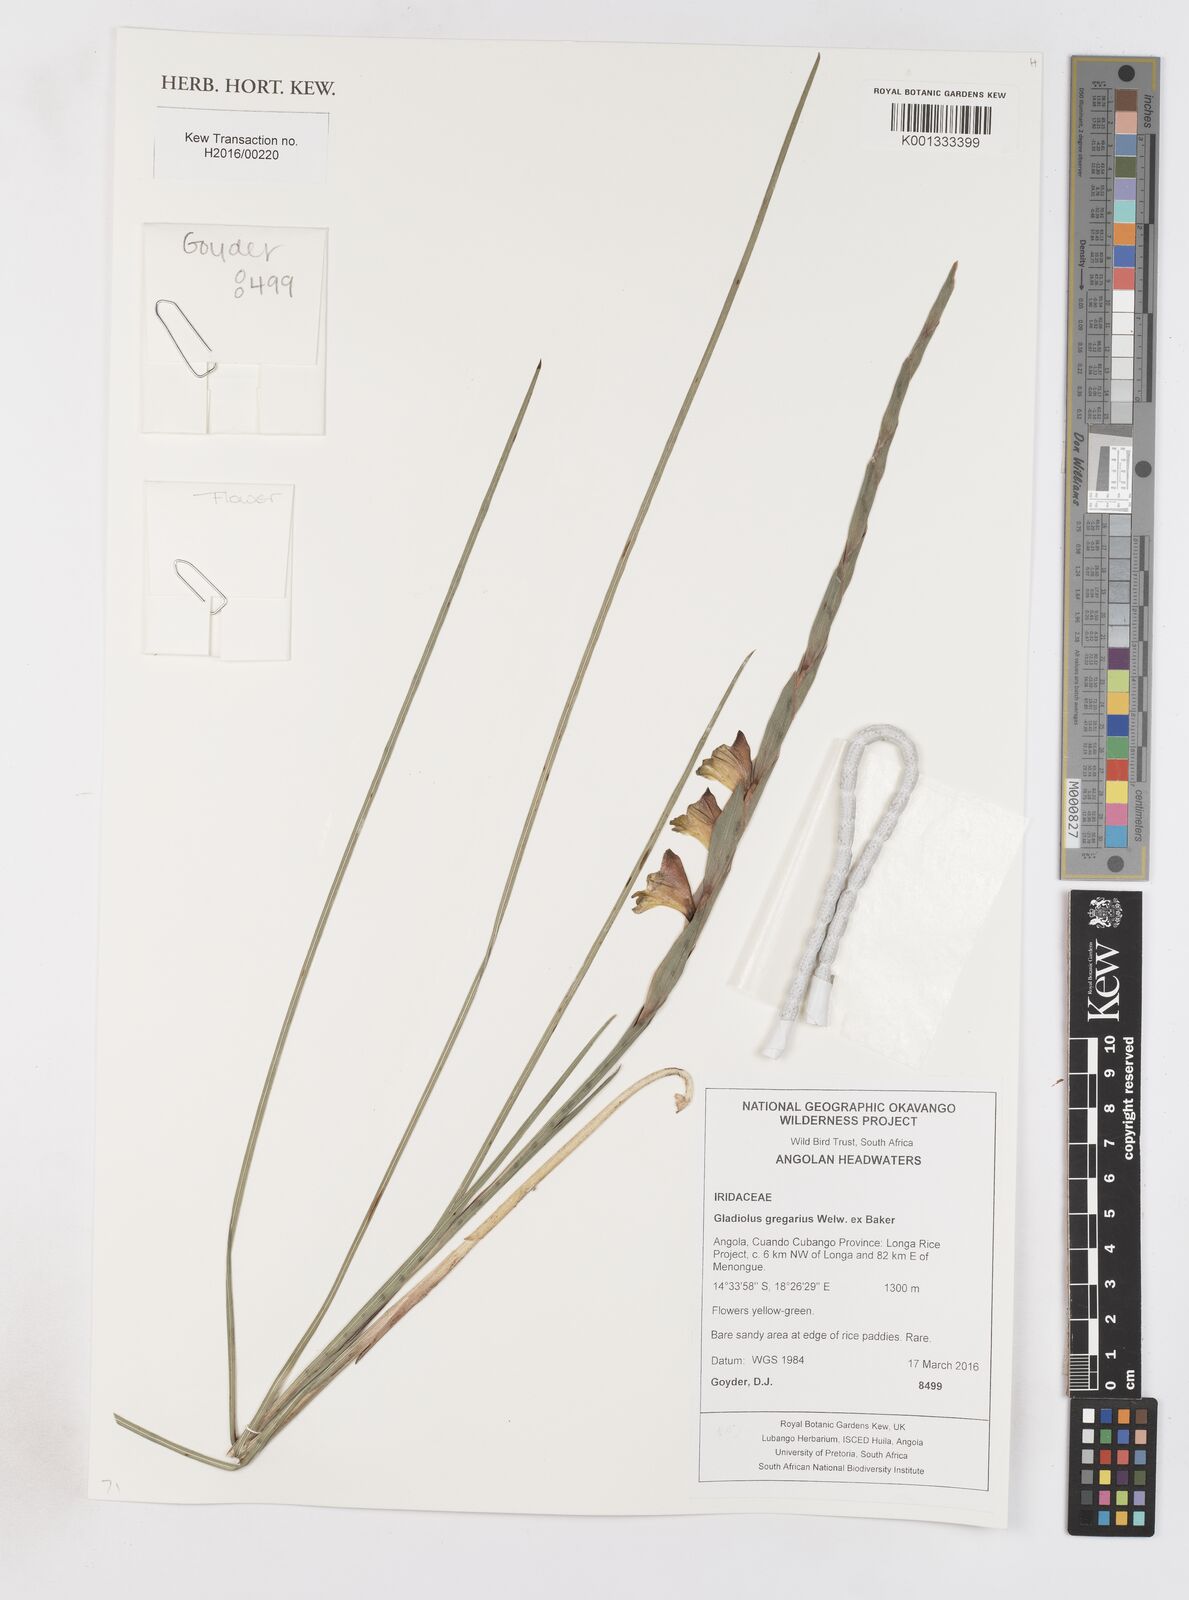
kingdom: Plantae
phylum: Tracheophyta
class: Liliopsida
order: Asparagales
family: Iridaceae
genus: Gladiolus
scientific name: Gladiolus gregarius
